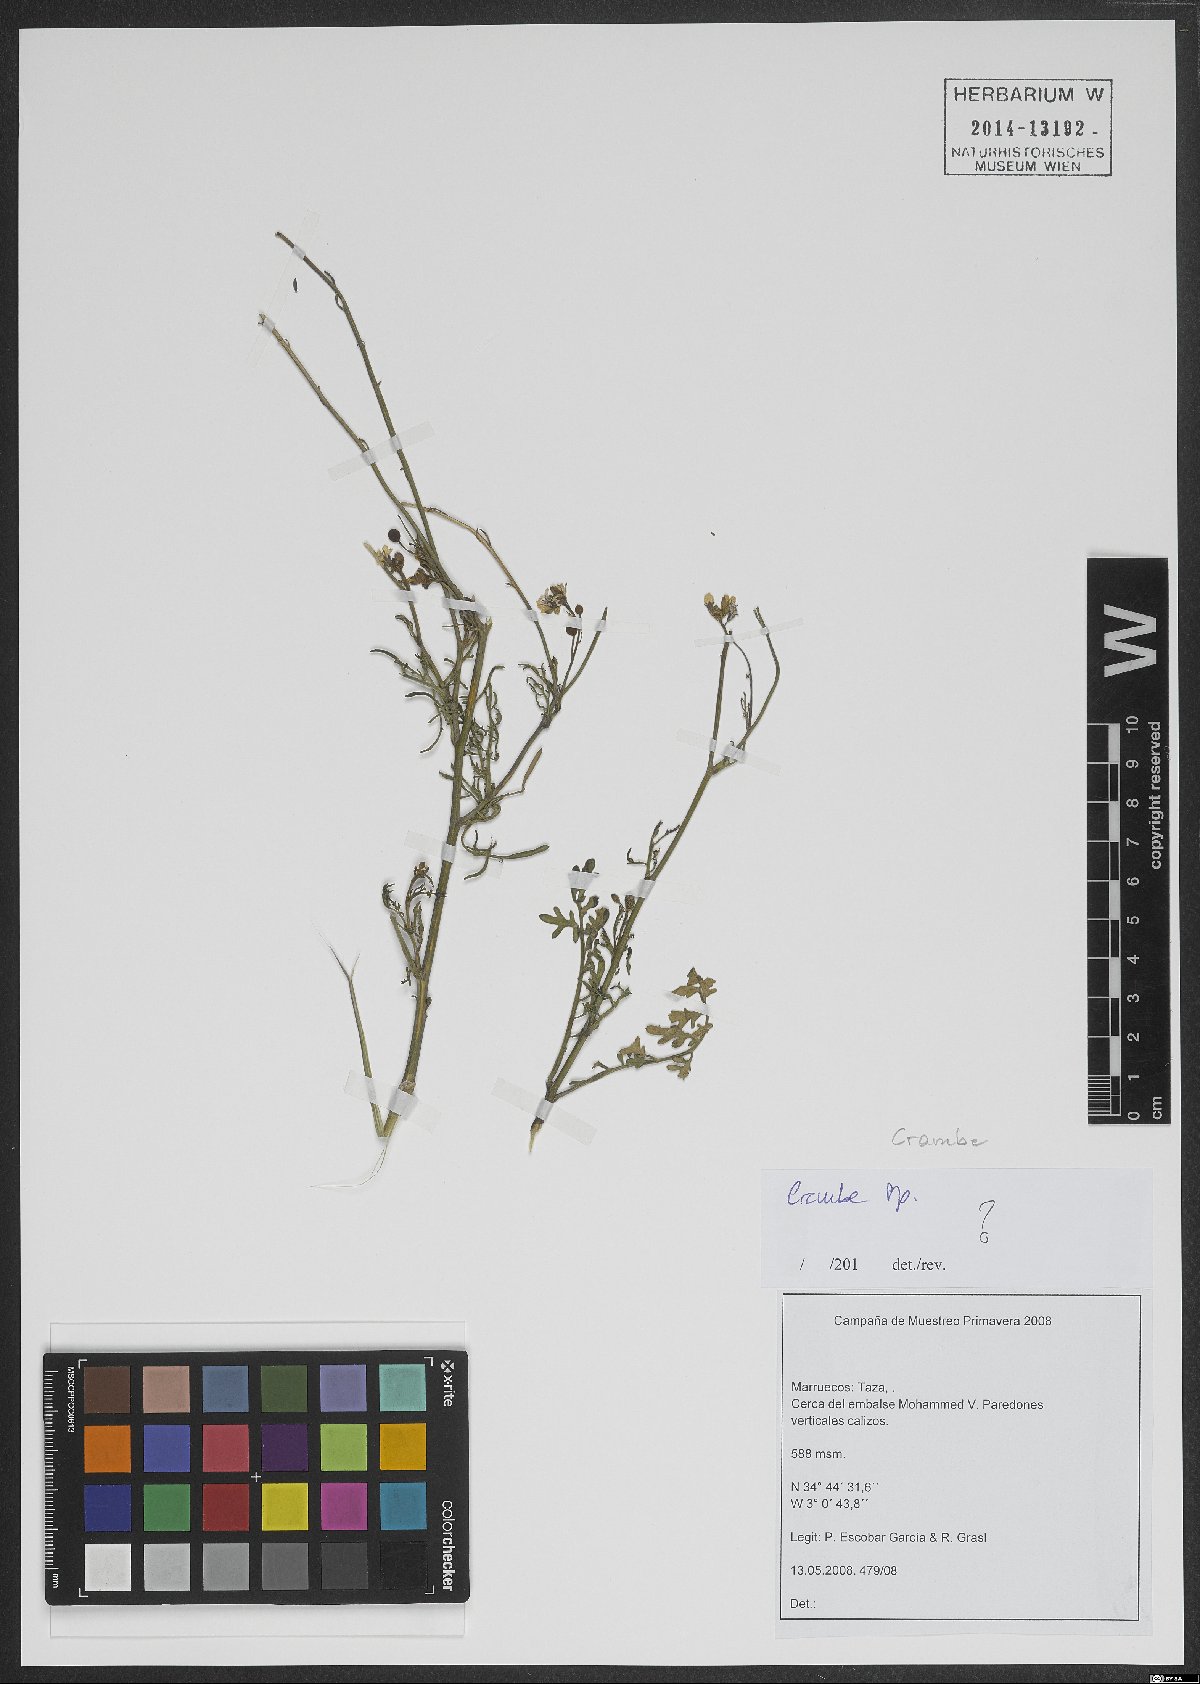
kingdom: Plantae
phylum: Tracheophyta
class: Magnoliopsida
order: Brassicales
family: Brassicaceae
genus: Crambe
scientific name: Crambe
